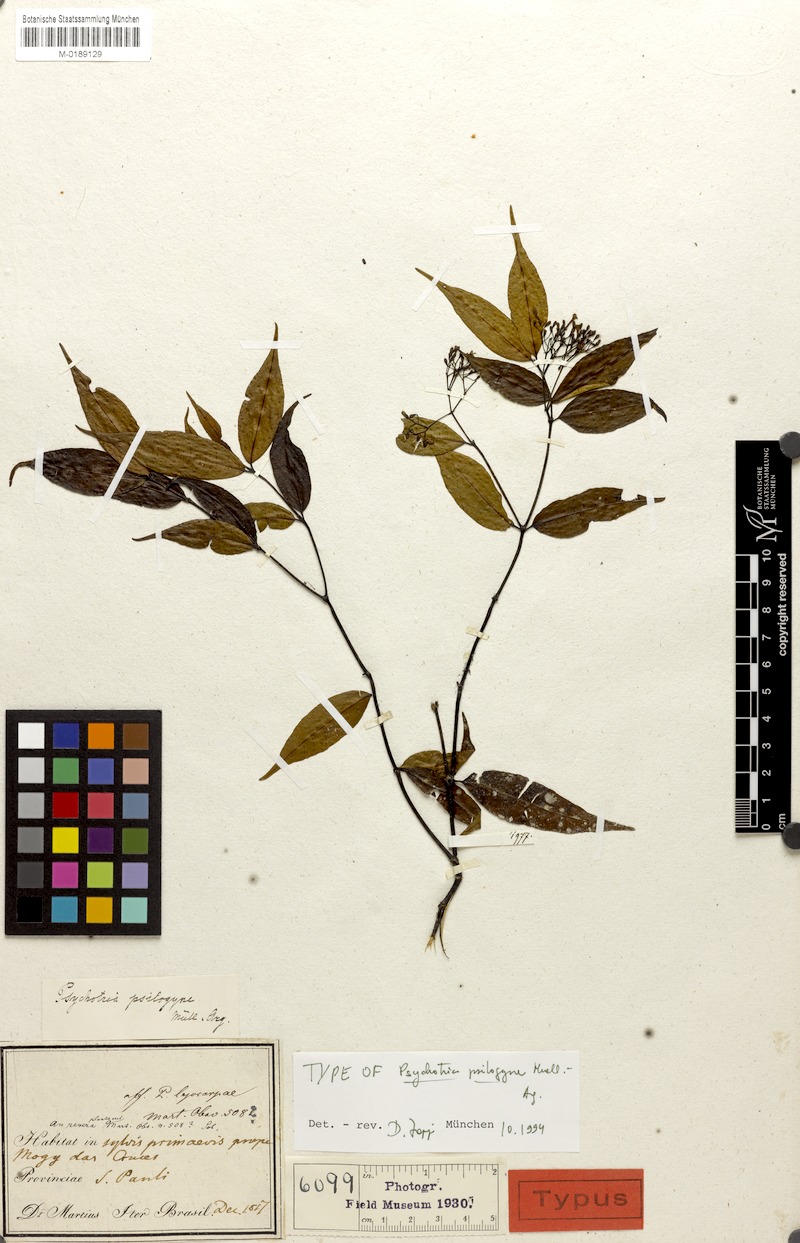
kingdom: Plantae
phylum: Tracheophyta
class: Magnoliopsida
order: Gentianales
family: Rubiaceae
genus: Psychotria
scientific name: Psychotria leiocarpa
